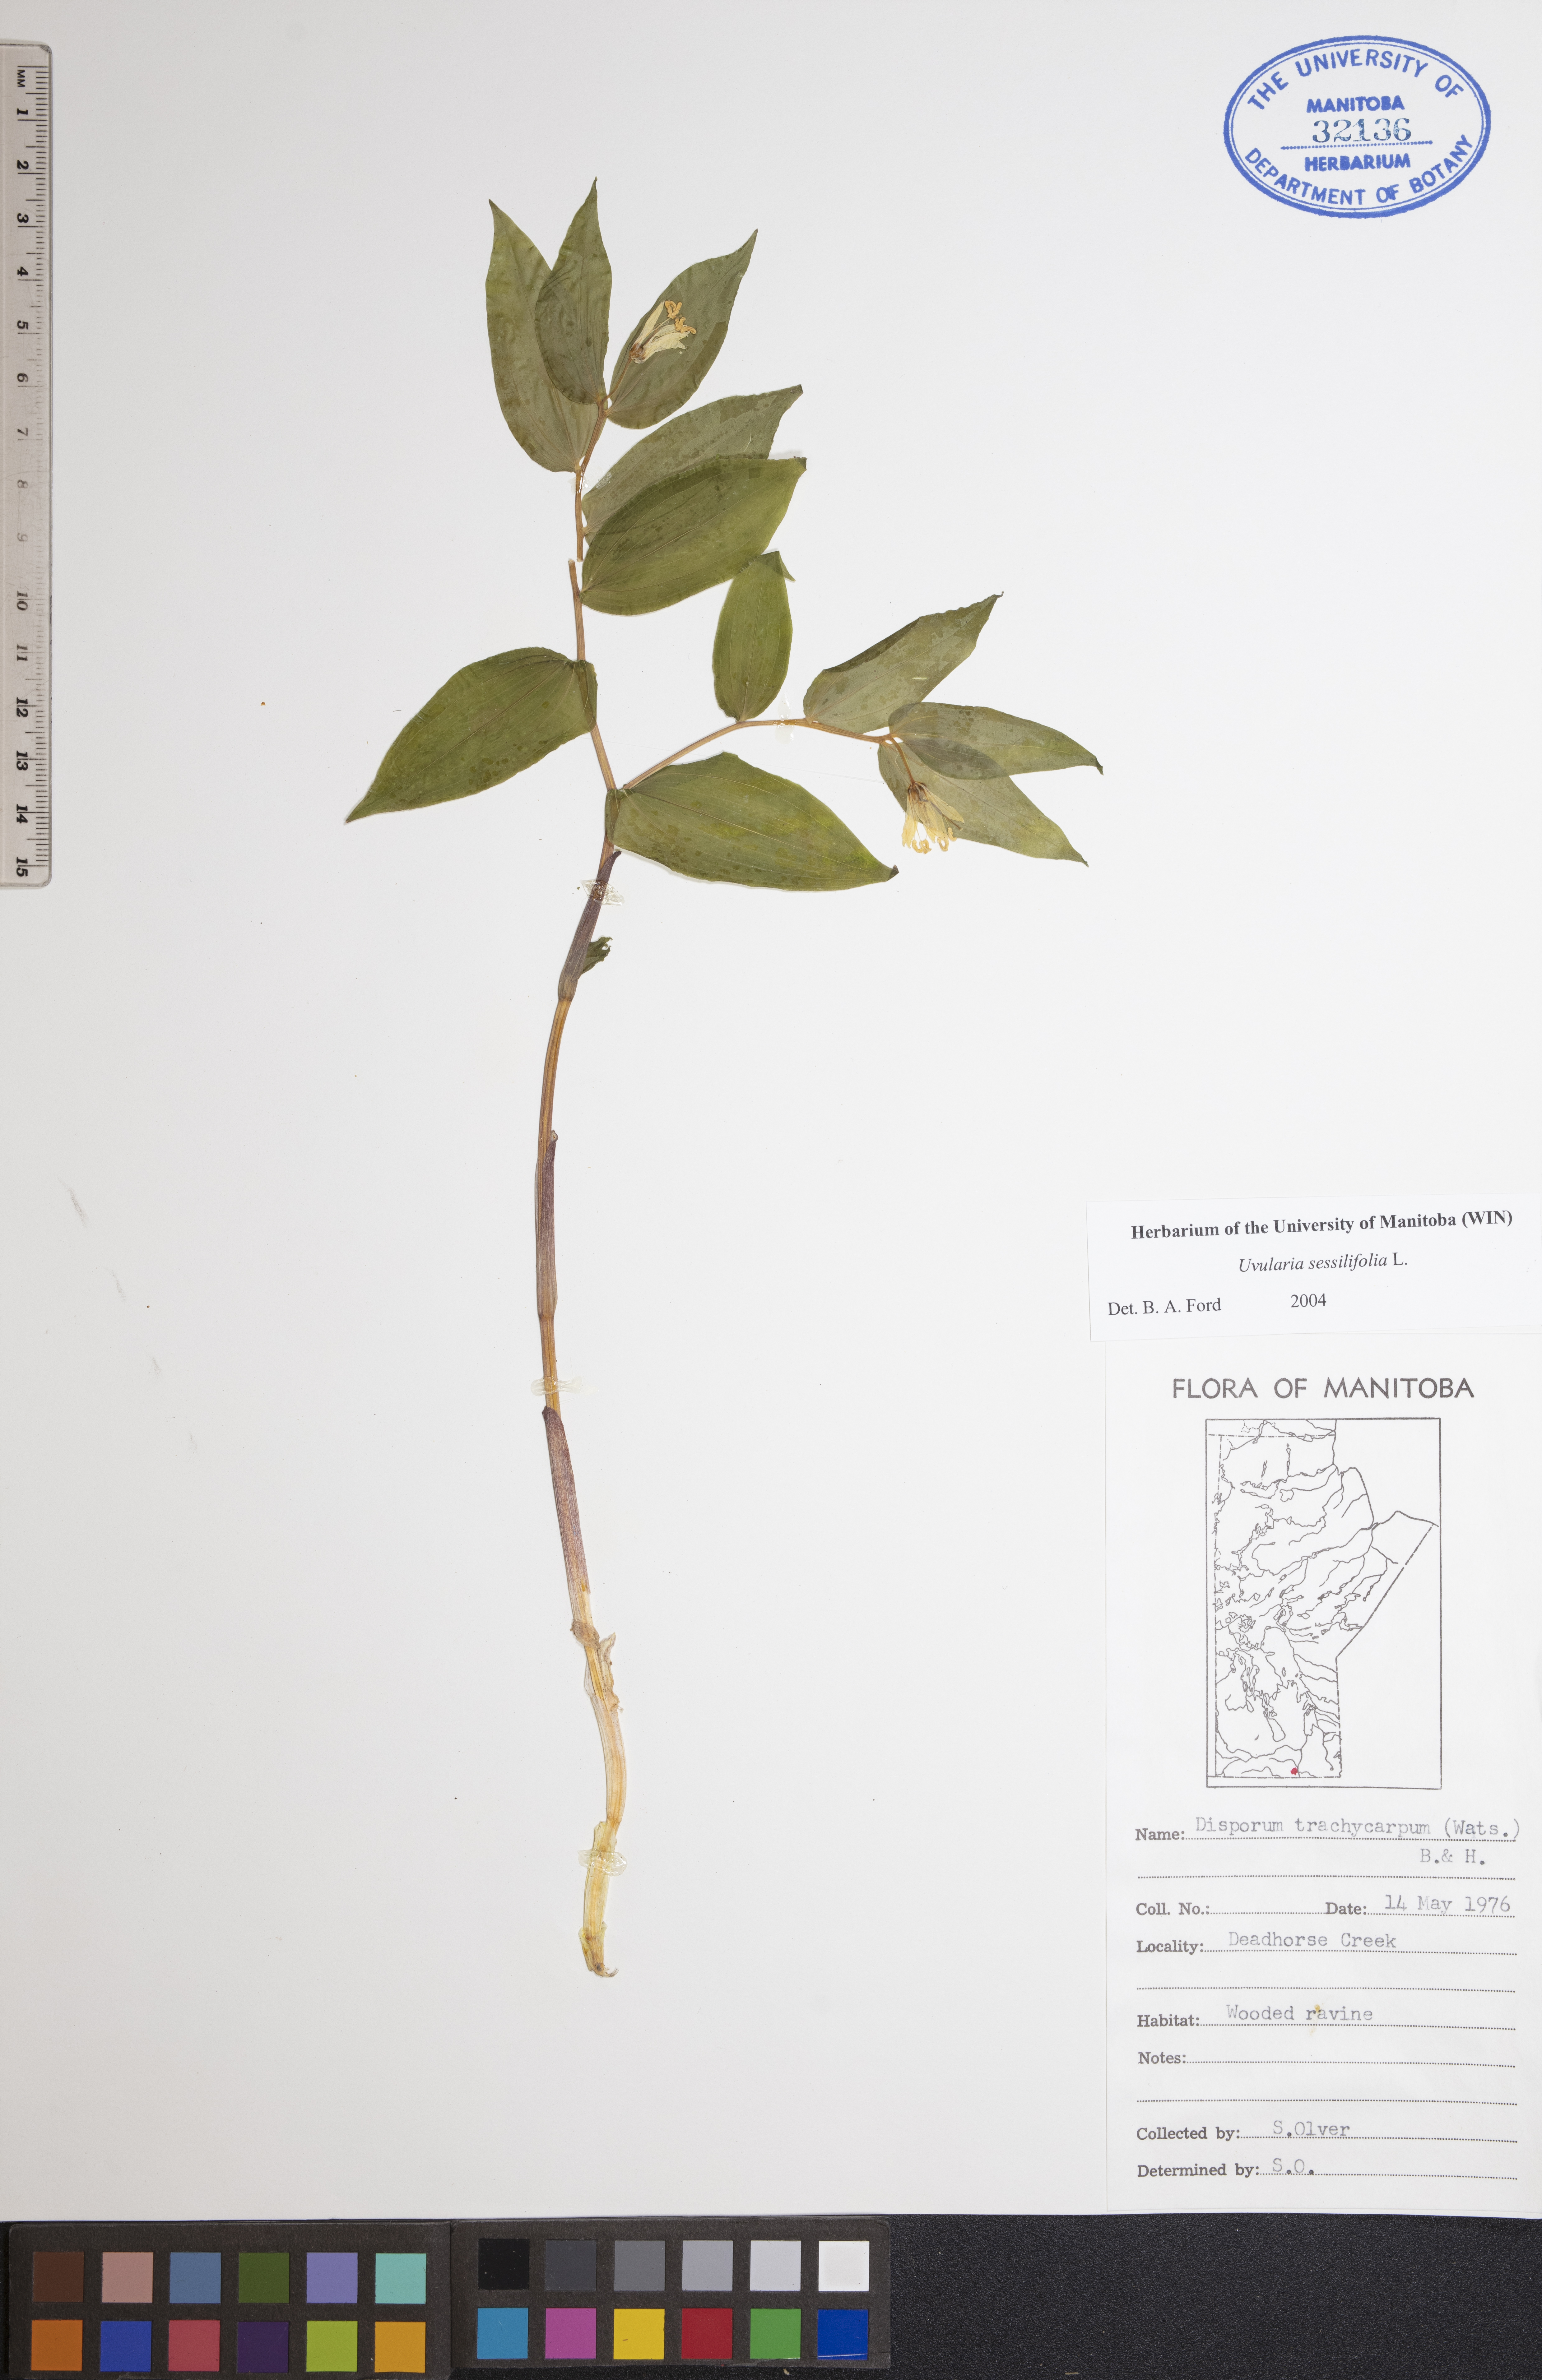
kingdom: Plantae
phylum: Tracheophyta
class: Liliopsida
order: Liliales
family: Colchicaceae
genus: Uvularia
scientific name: Uvularia sessilifolia
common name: Straw-lily
